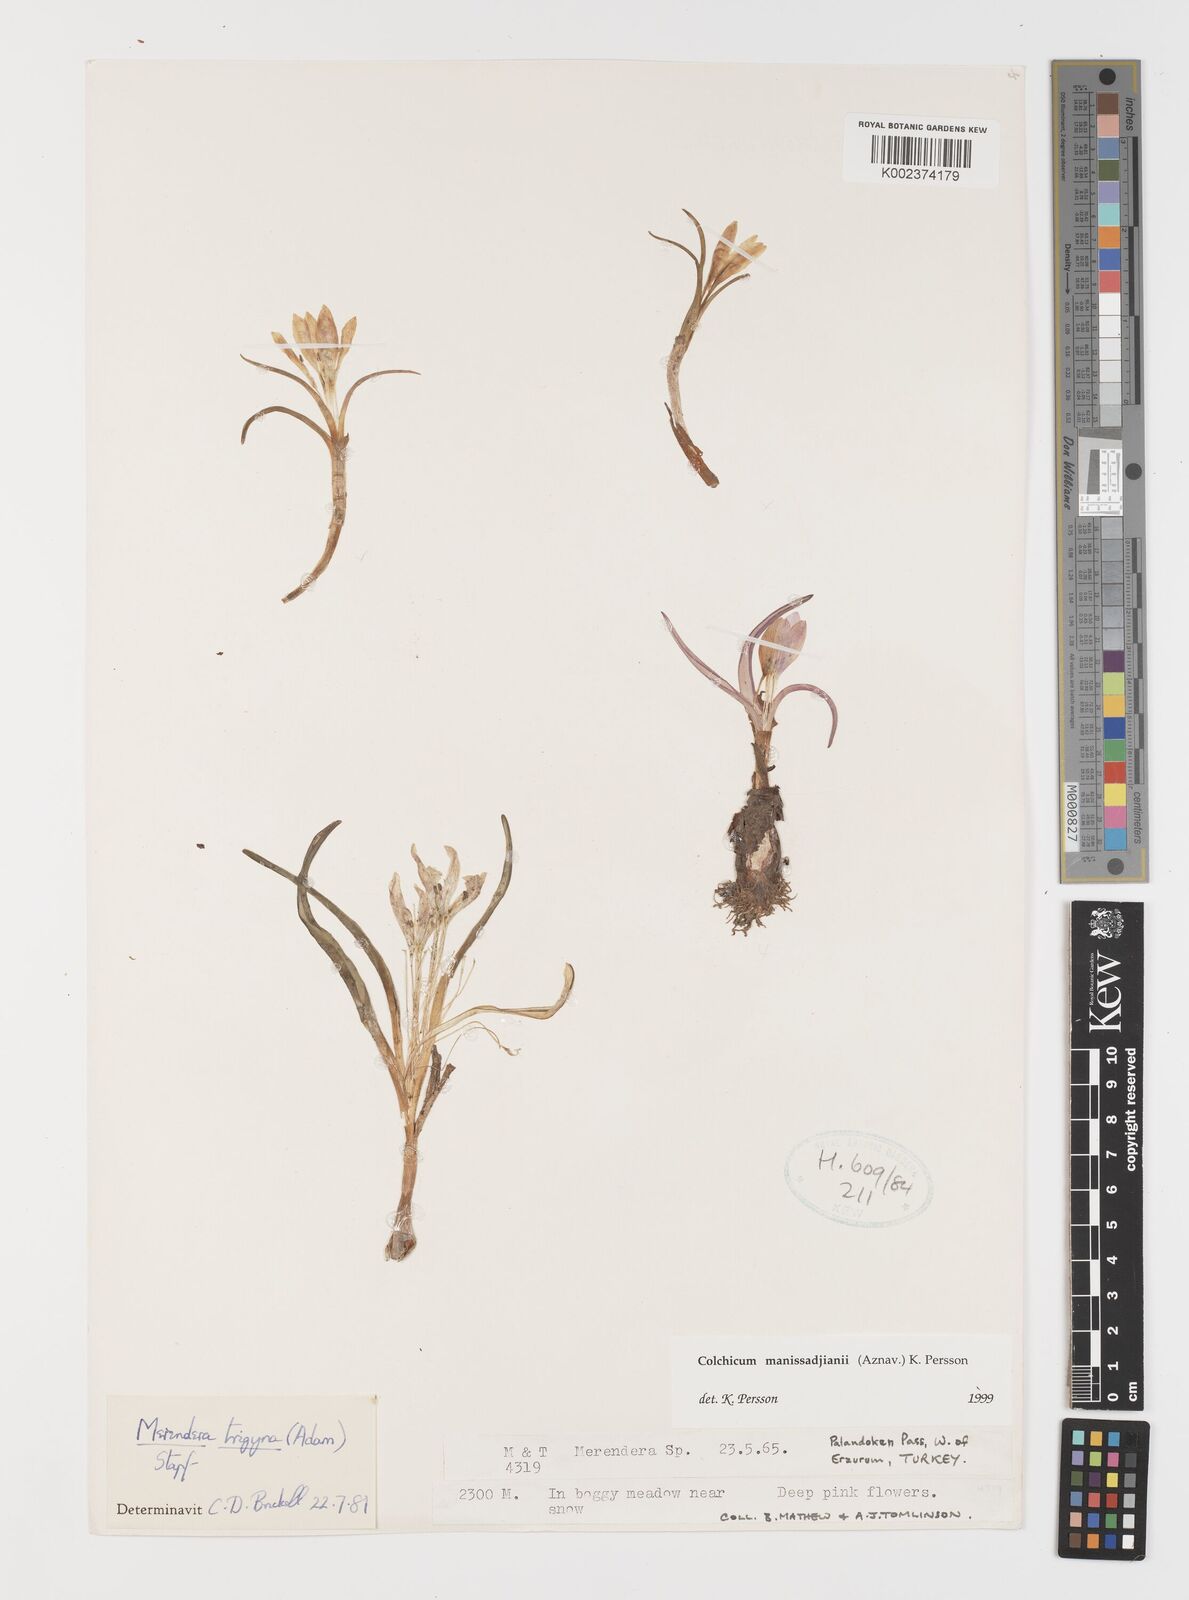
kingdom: Plantae
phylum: Tracheophyta
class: Liliopsida
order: Liliales
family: Colchicaceae
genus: Colchicum
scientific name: Colchicum manissadjianii
